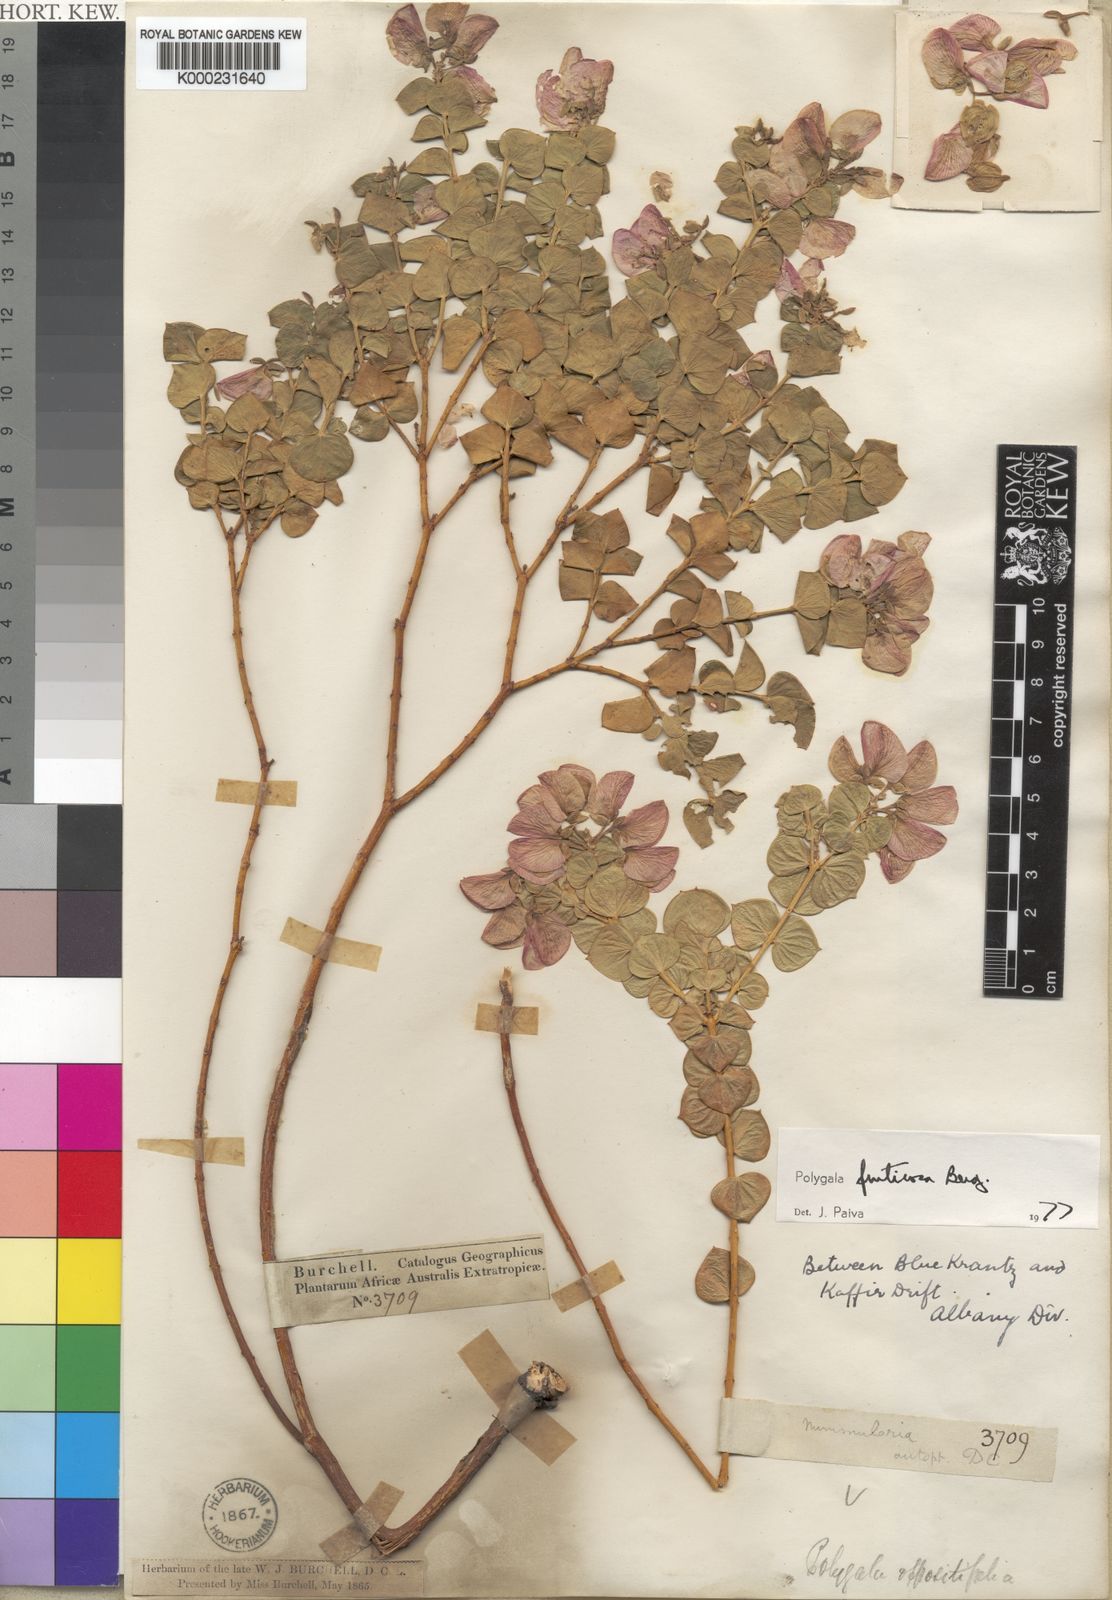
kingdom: Plantae
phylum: Tracheophyta
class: Magnoliopsida
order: Fabales
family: Polygalaceae
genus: Polygala
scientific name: Polygala fruticosa
